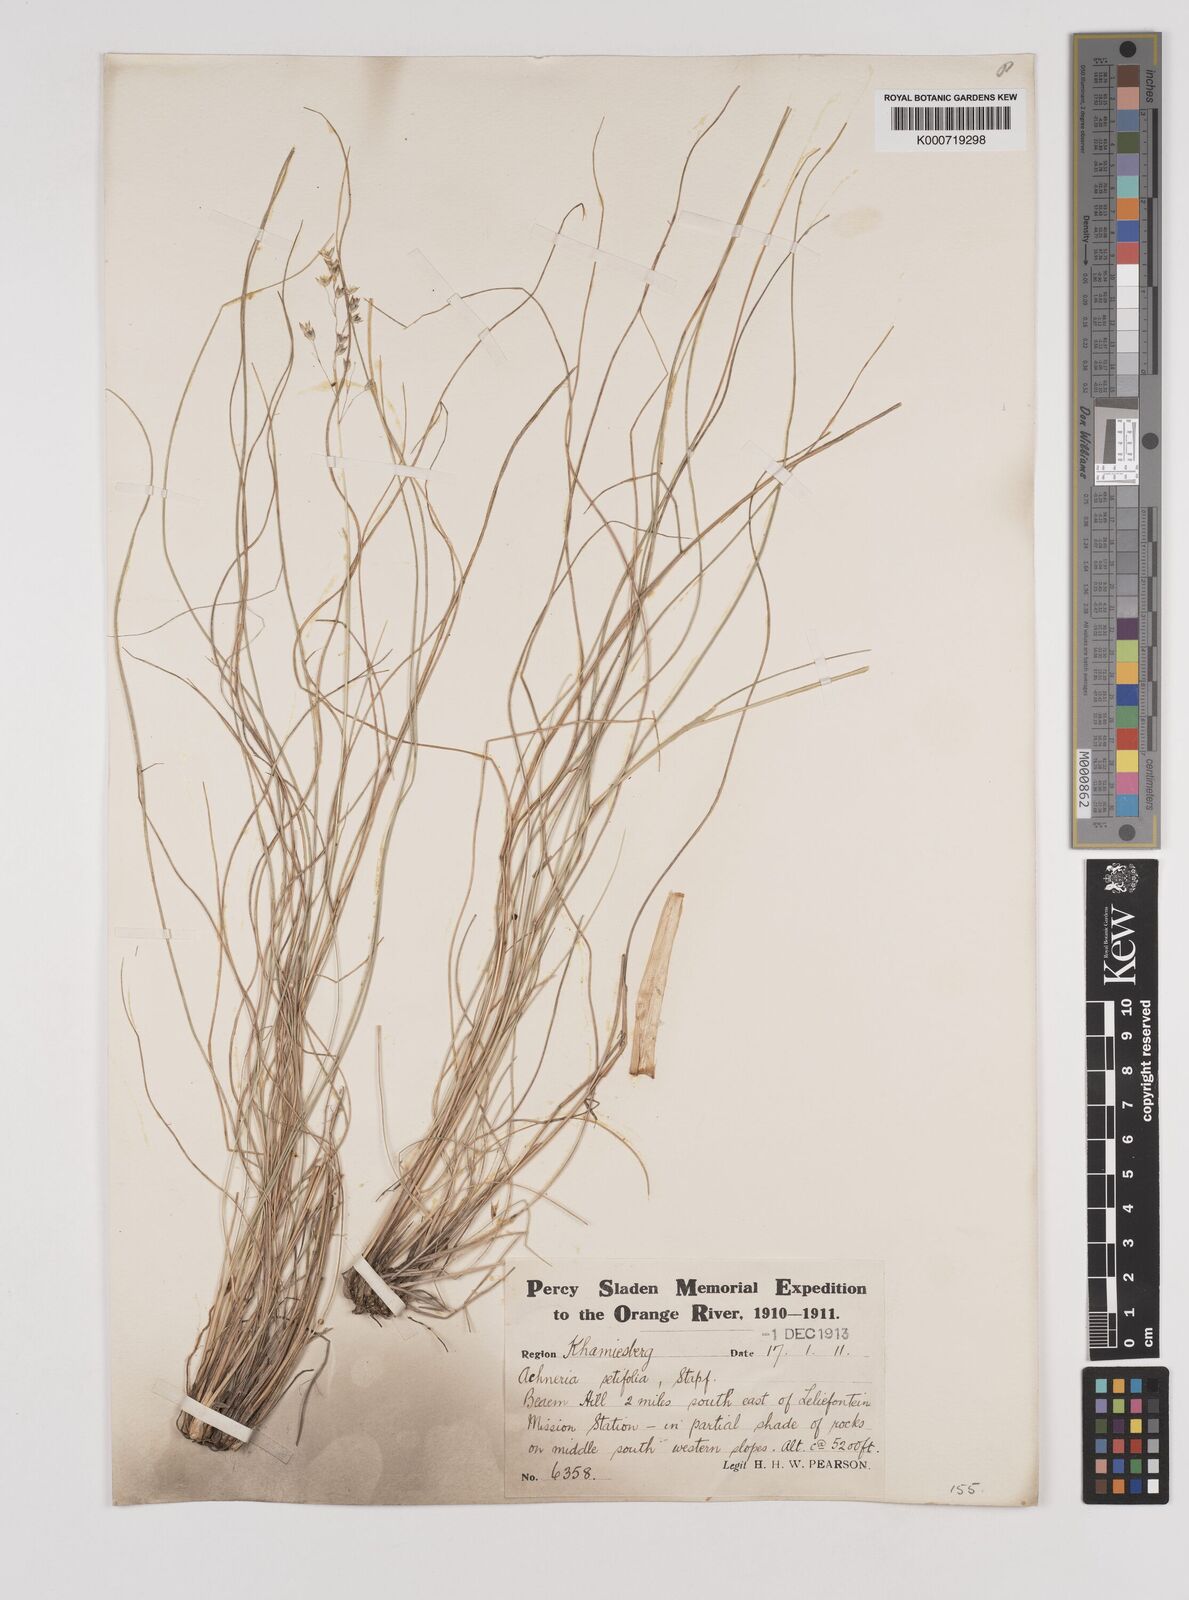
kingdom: Plantae
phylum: Tracheophyta
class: Liliopsida
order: Poales
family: Poaceae
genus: Pentameris
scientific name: Pentameris setifolia
